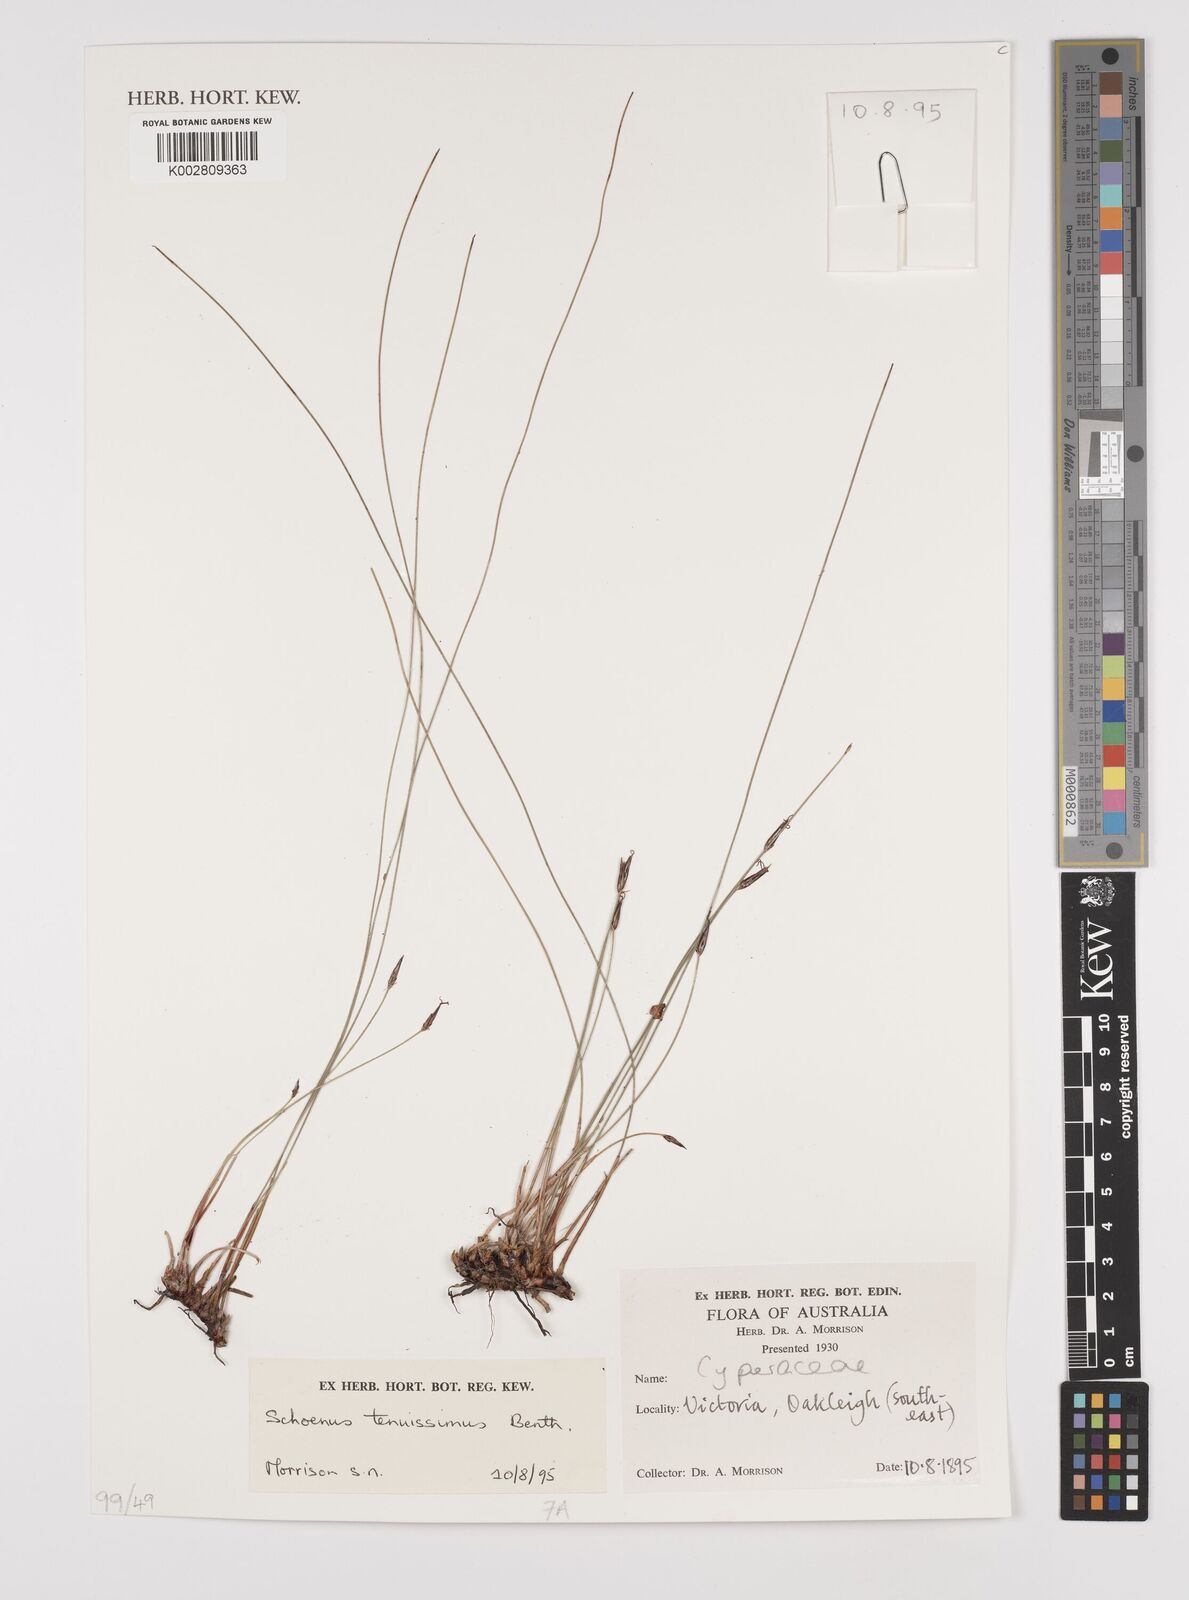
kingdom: Plantae
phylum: Tracheophyta
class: Liliopsida
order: Poales
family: Cyperaceae
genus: Schoenus
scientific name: Schoenus tenuissimus
